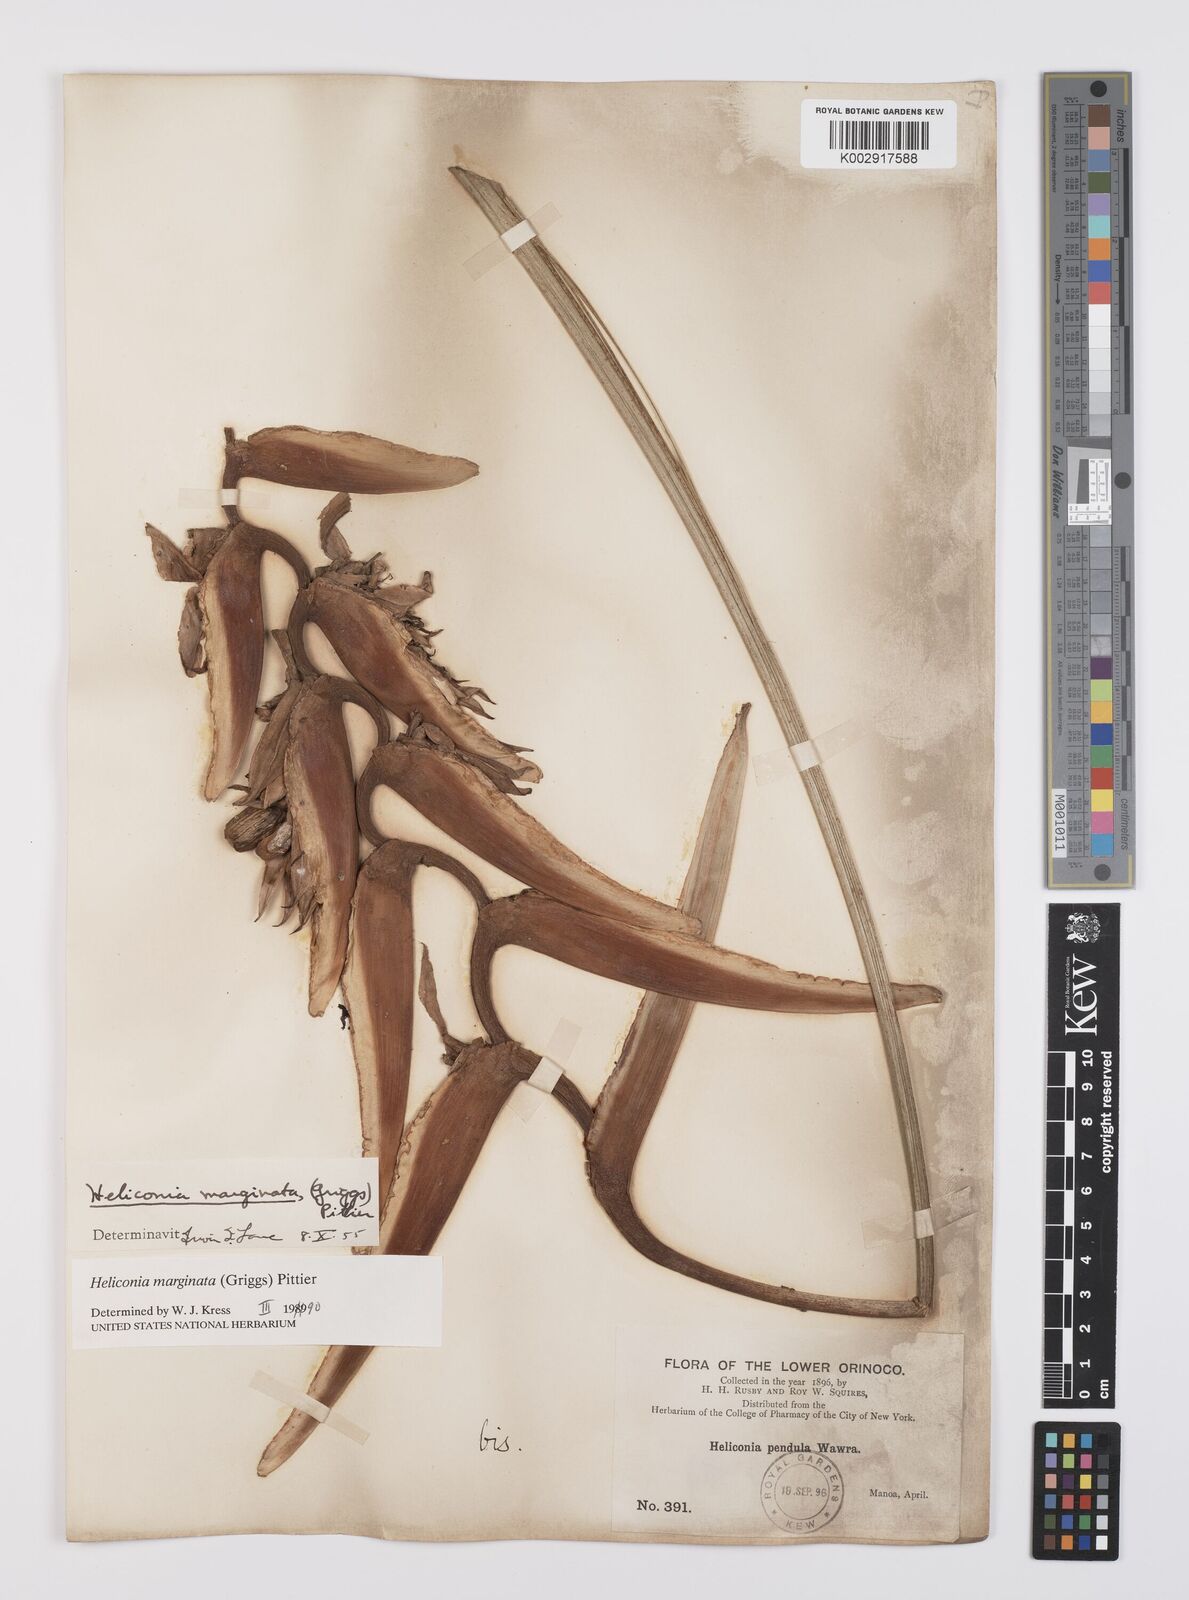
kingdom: Plantae
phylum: Tracheophyta
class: Liliopsida
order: Zingiberales
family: Heliconiaceae
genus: Heliconia
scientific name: Heliconia marginata
